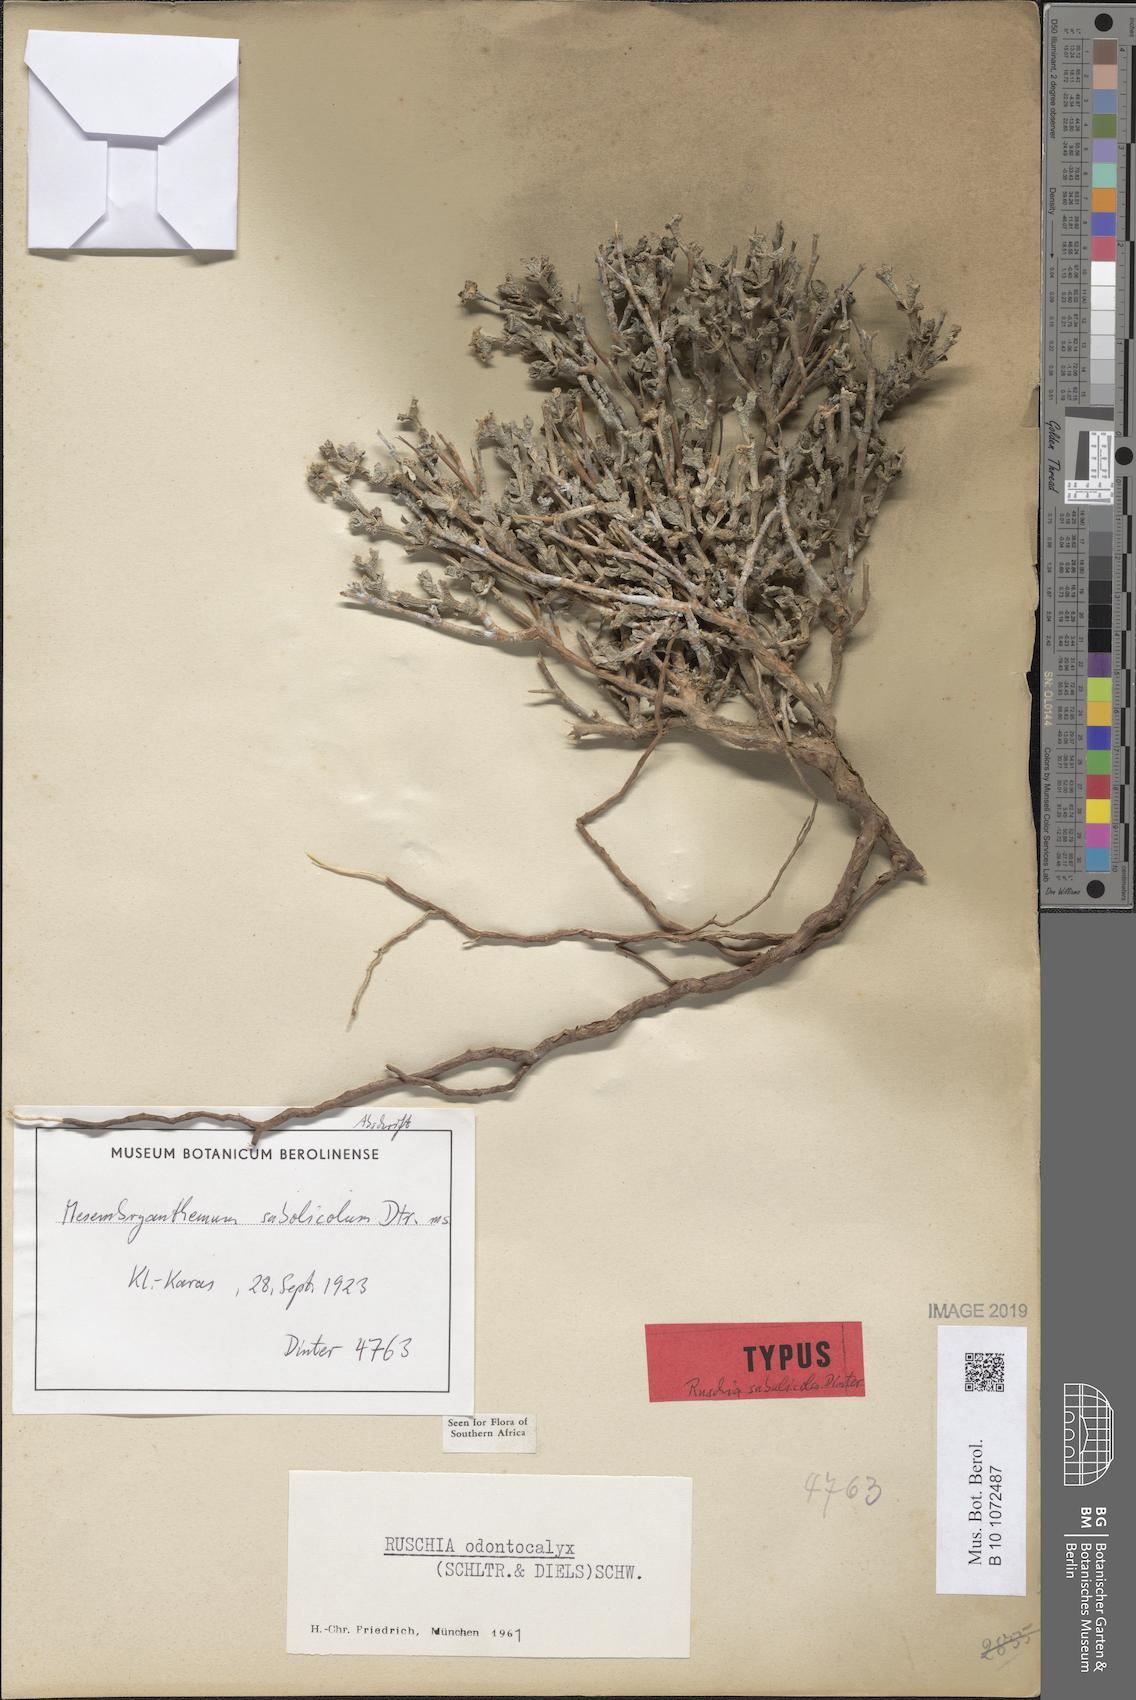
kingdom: Plantae
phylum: Tracheophyta
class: Magnoliopsida
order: Caryophyllales
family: Aizoaceae
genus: Ruschia
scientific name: Ruschia sabulicola
